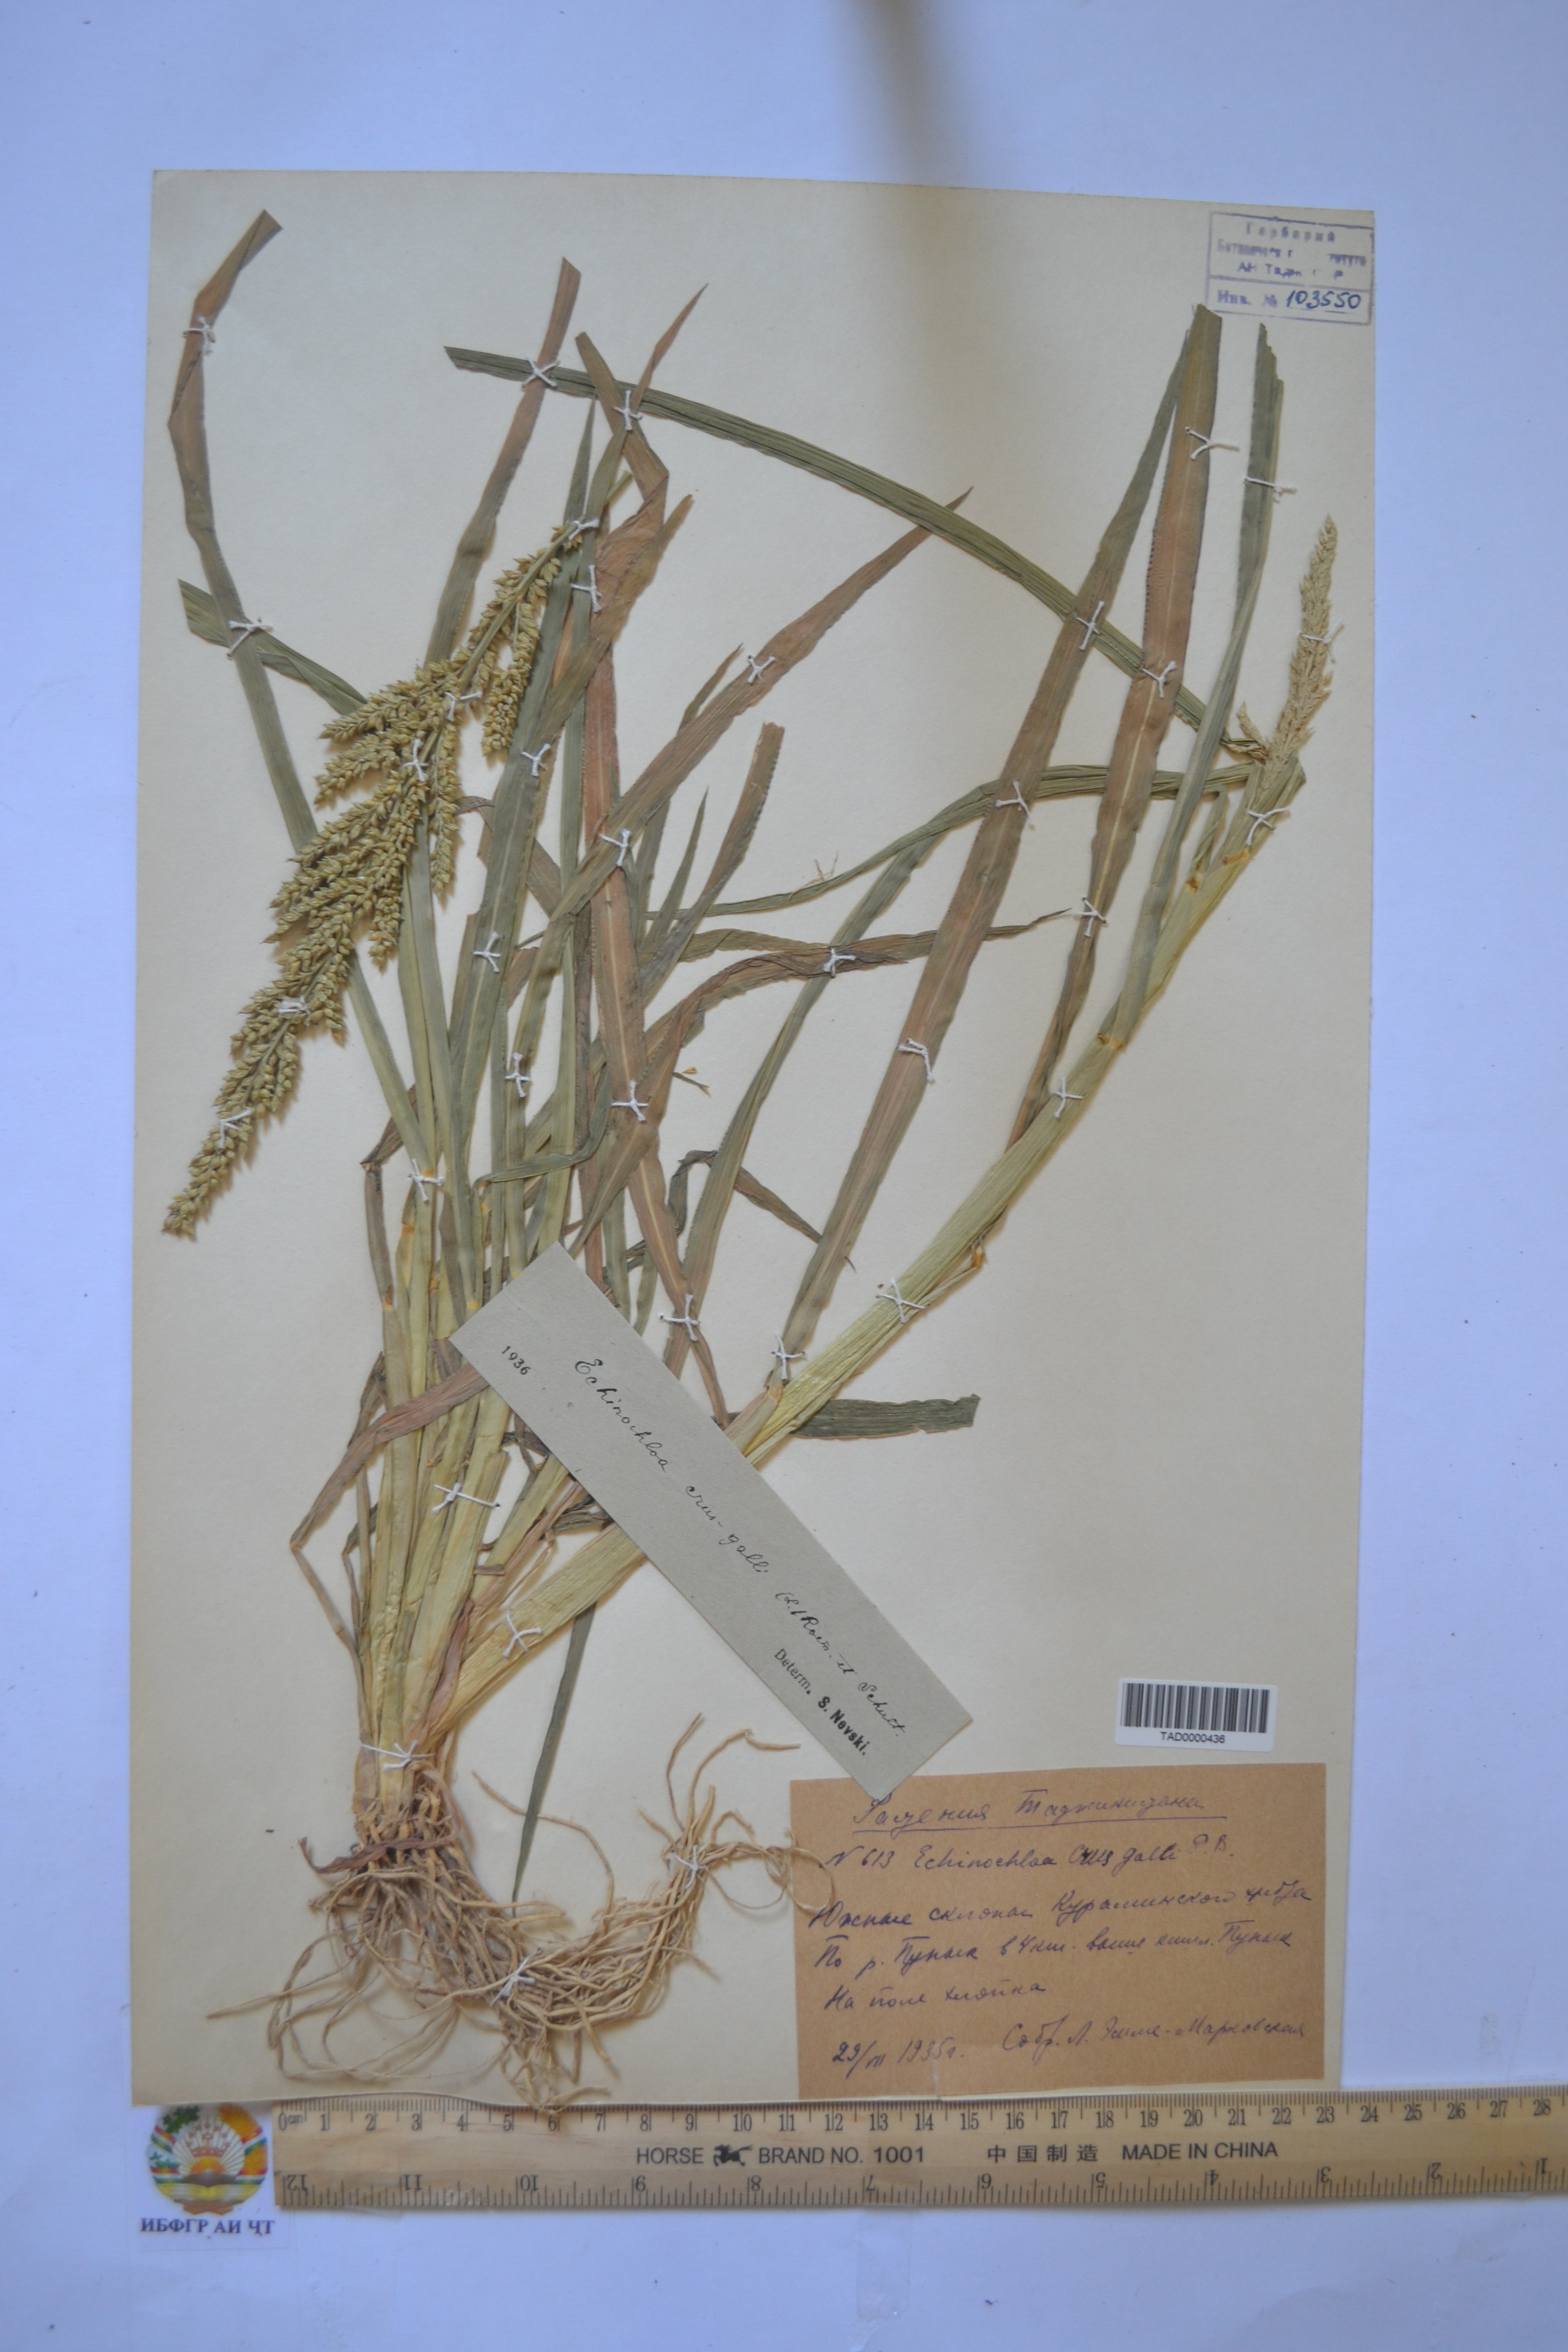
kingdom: Plantae
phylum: Tracheophyta
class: Liliopsida
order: Poales
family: Poaceae
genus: Echinochloa
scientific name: Echinochloa crus-galli
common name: Cockspur
